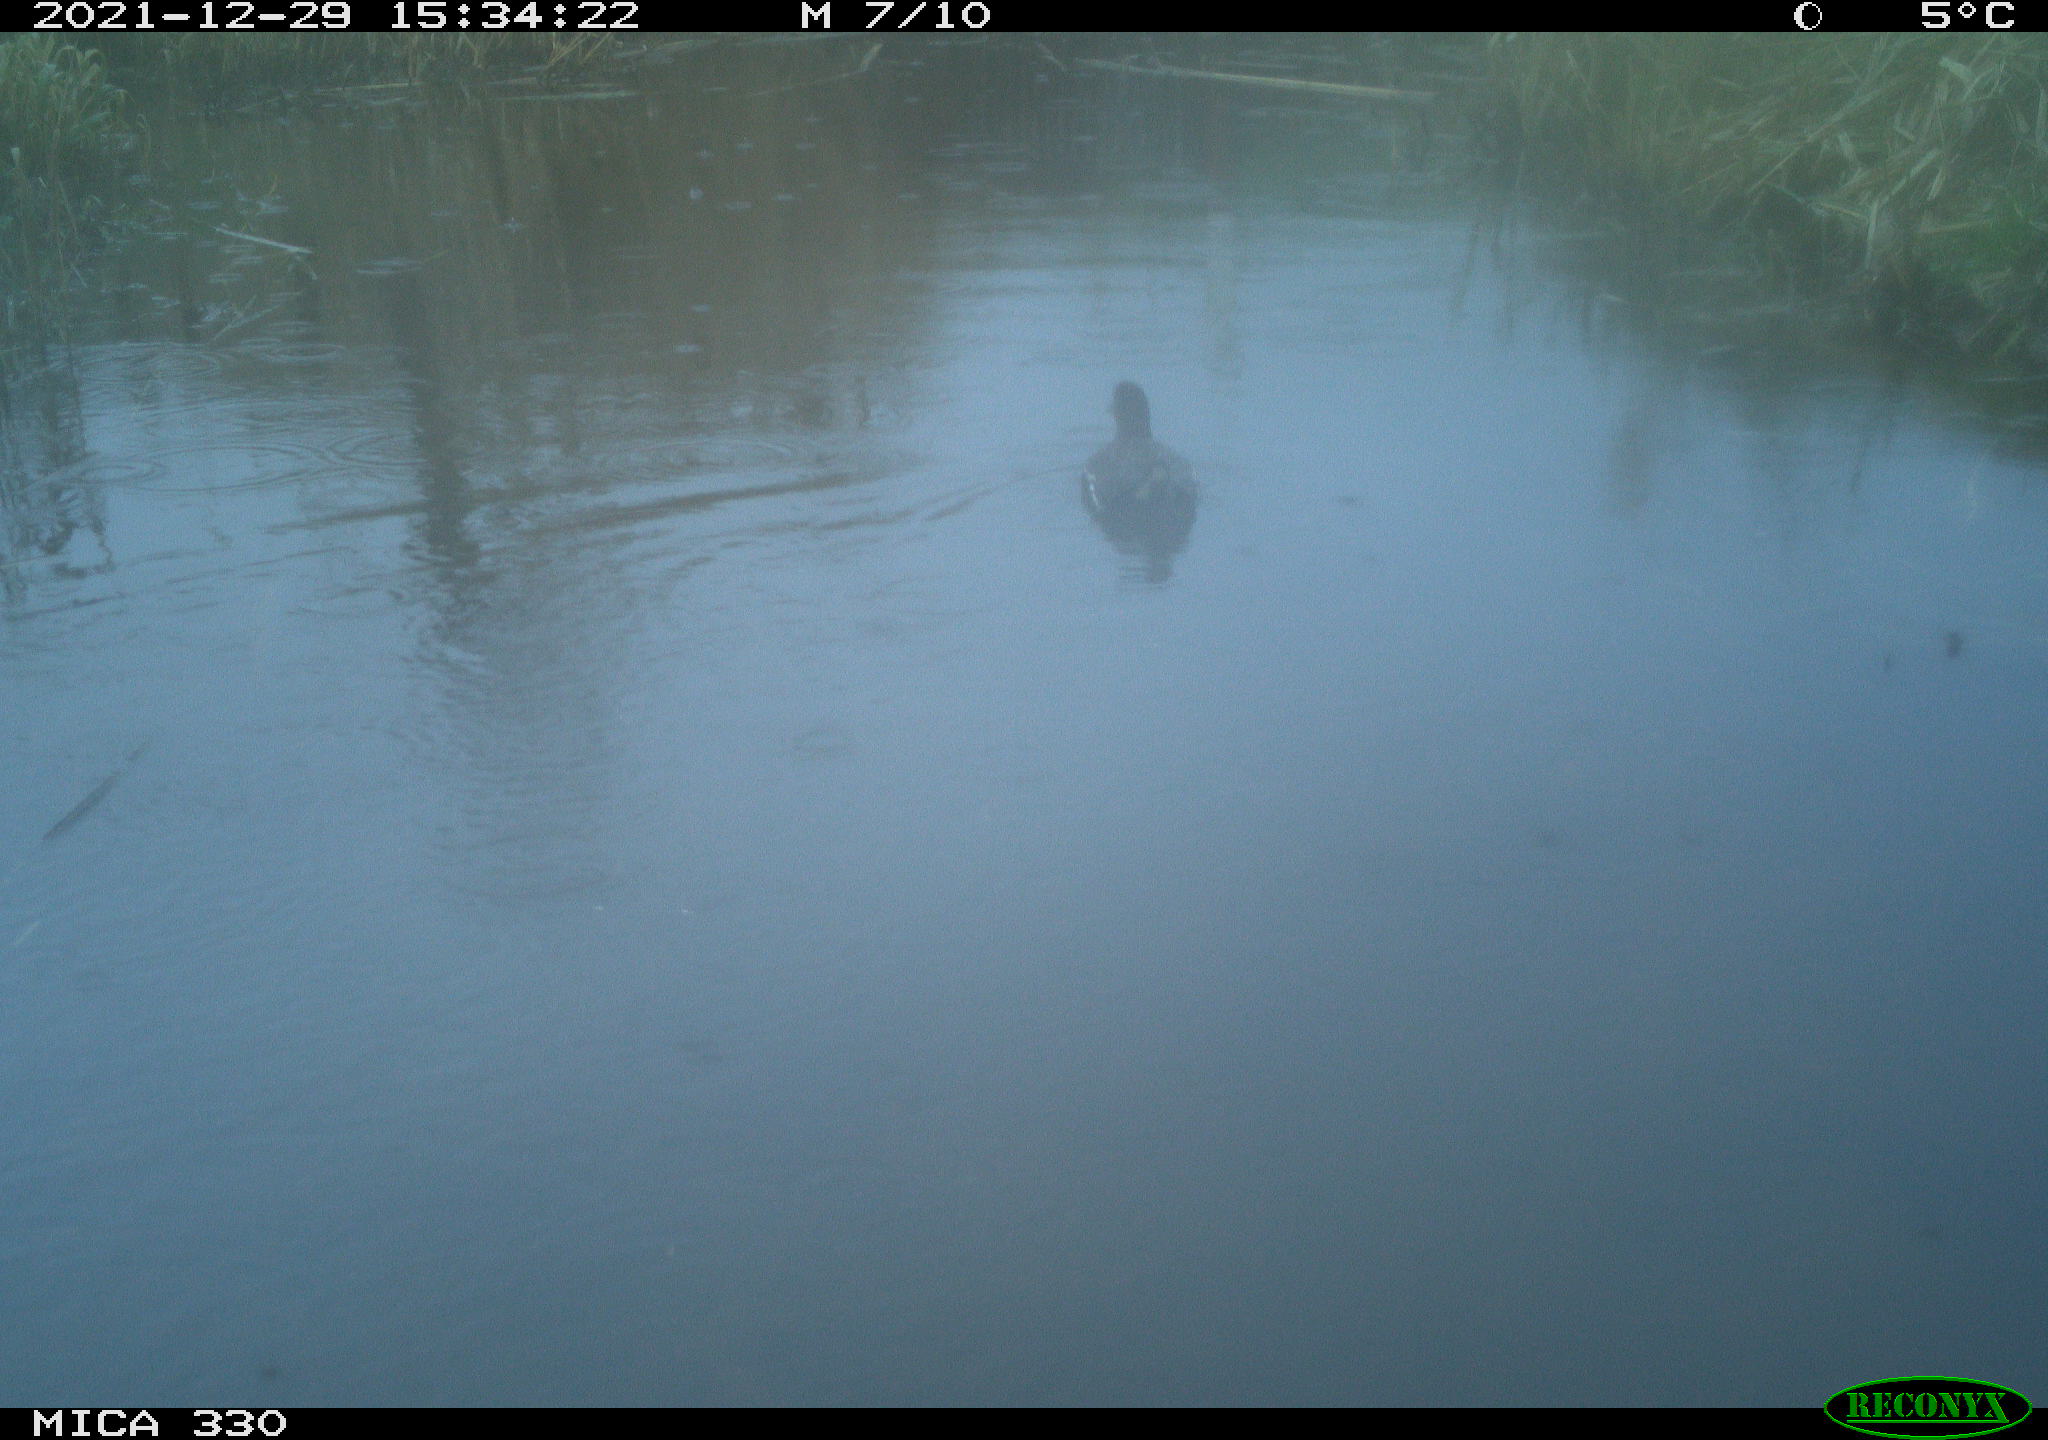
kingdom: Animalia
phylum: Chordata
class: Aves
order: Gruiformes
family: Rallidae
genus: Gallinula
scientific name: Gallinula chloropus
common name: Common moorhen
